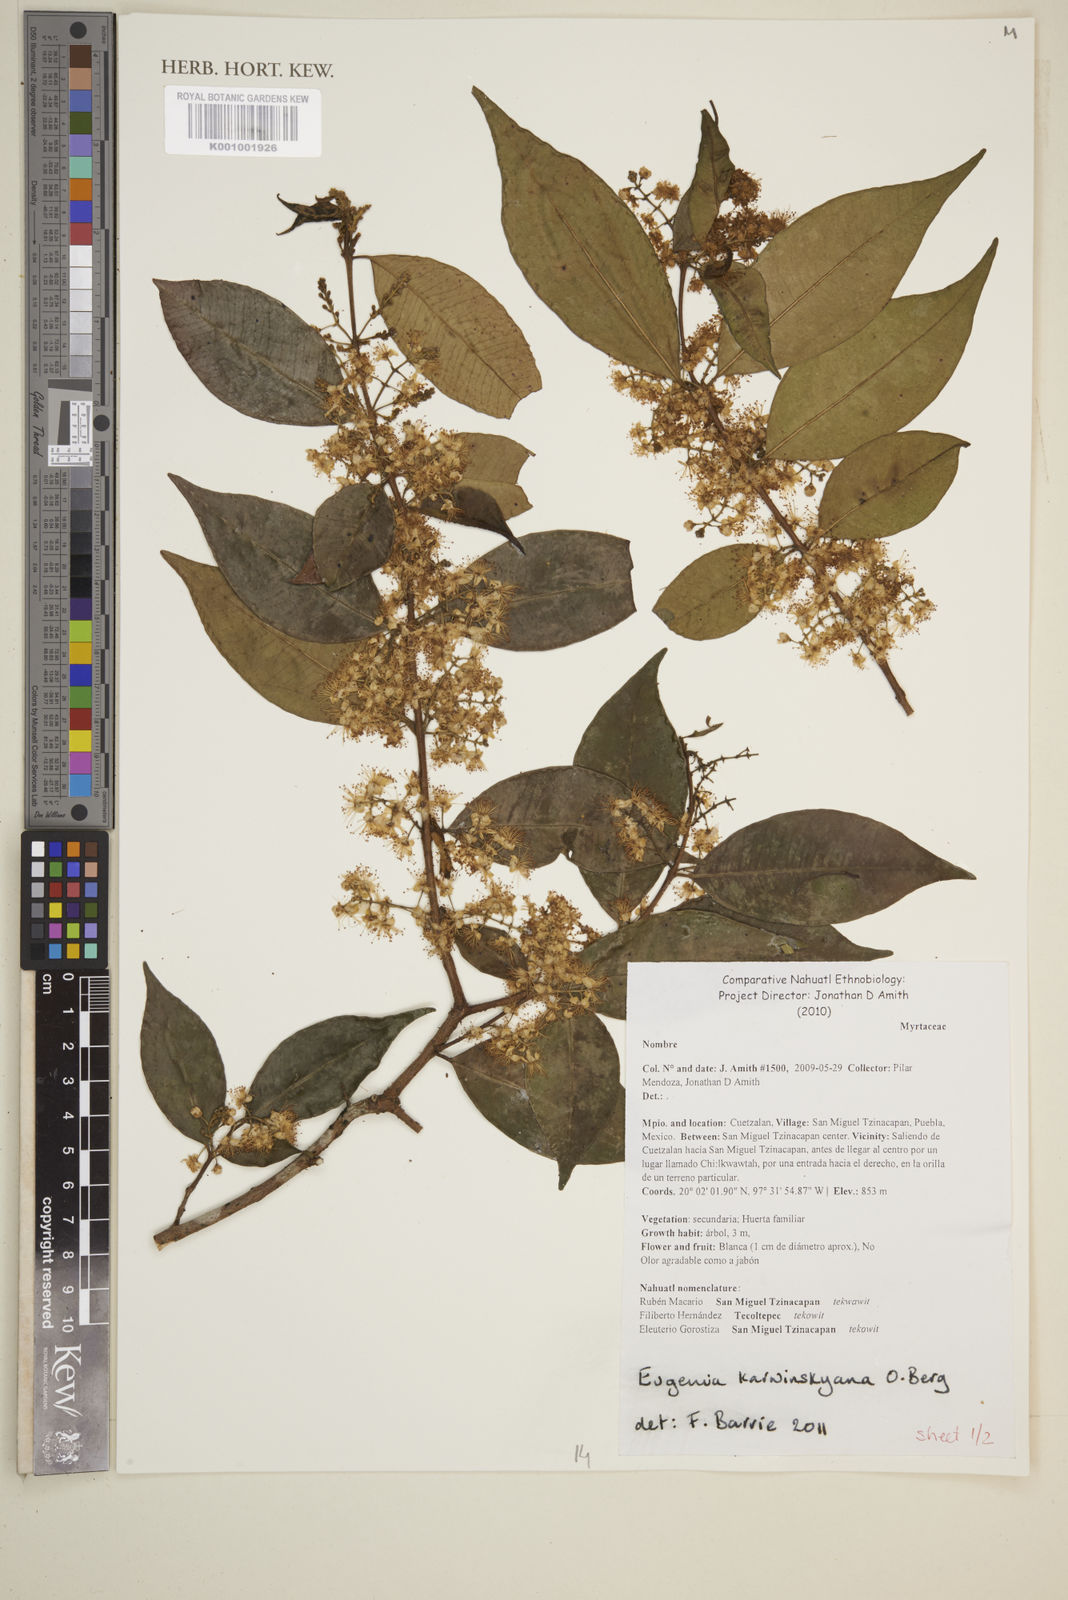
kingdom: Plantae
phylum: Tracheophyta
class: Magnoliopsida
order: Myrtales
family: Myrtaceae
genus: Eugenia
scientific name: Eugenia karwinskyana
